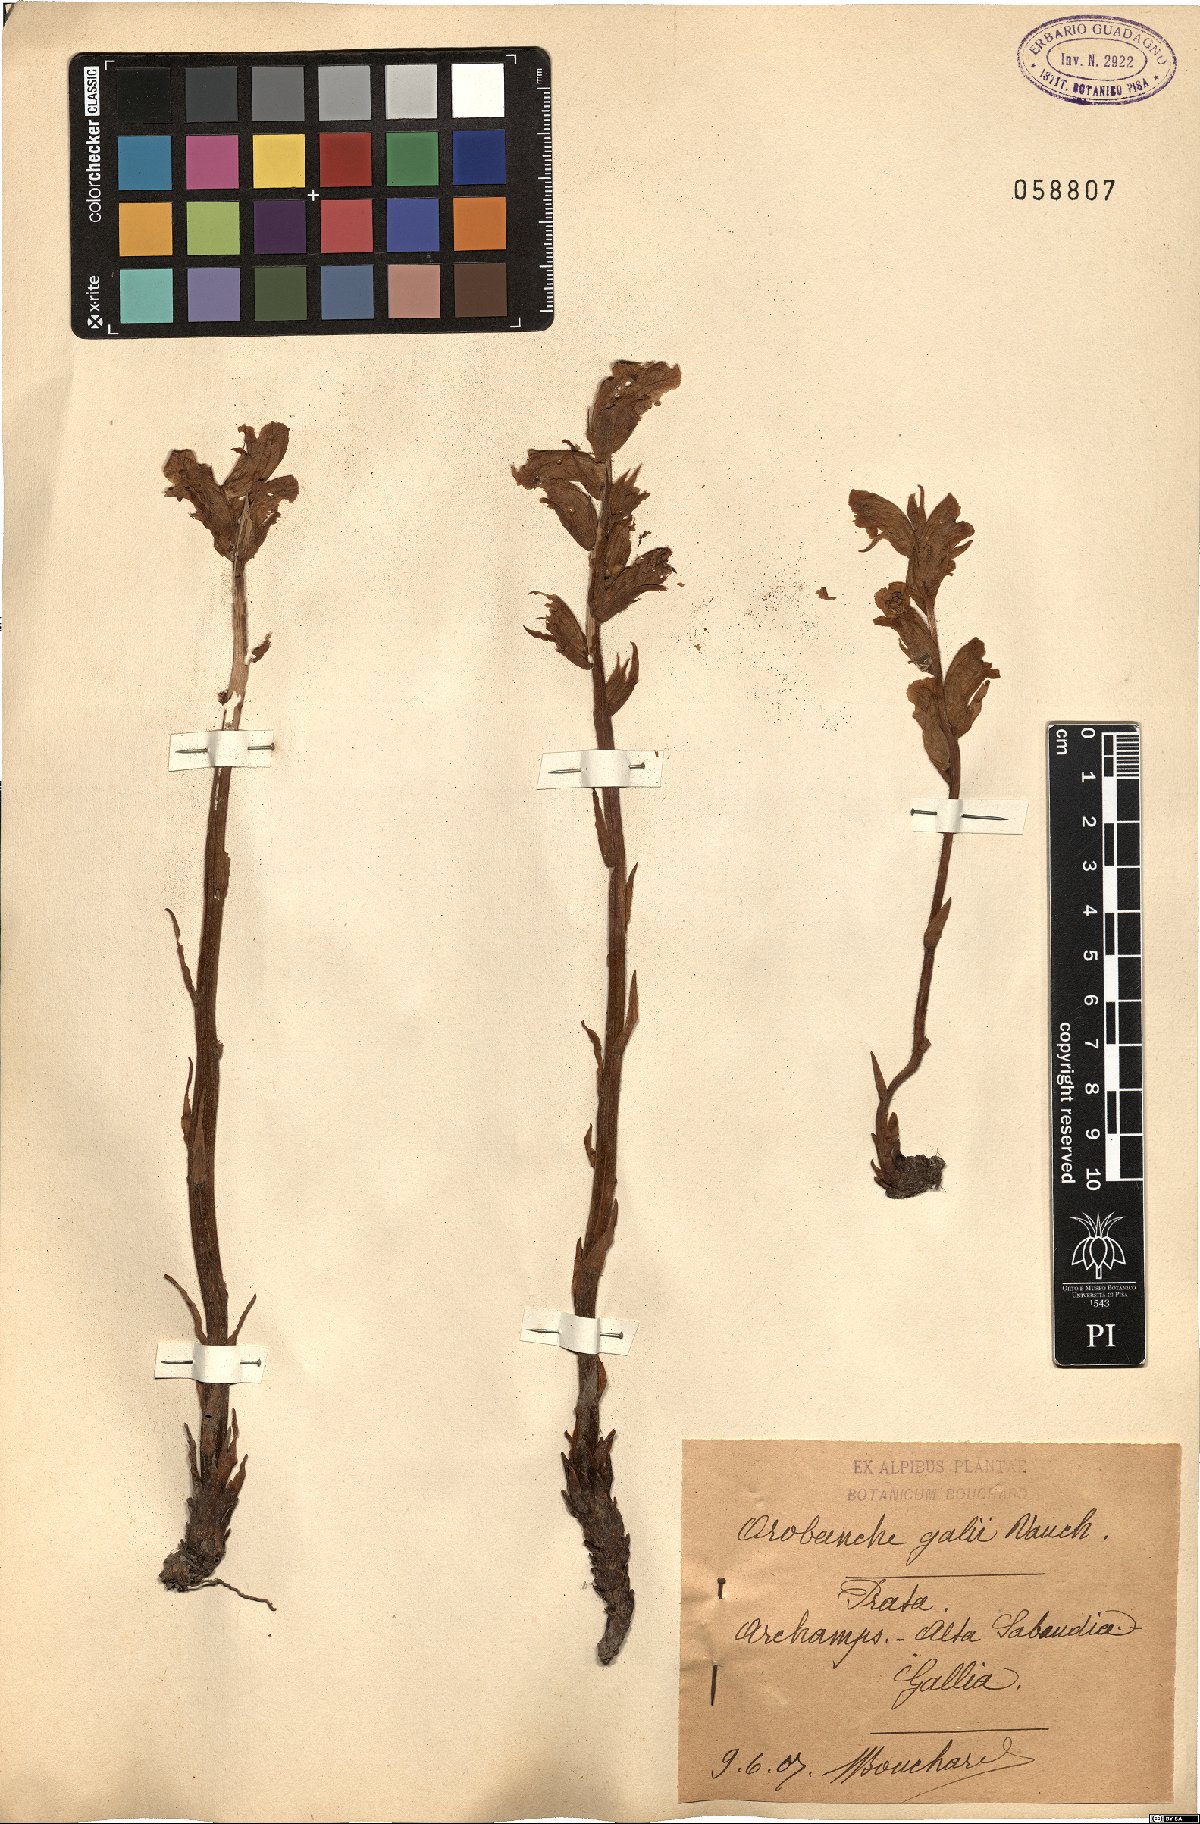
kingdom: Plantae
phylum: Tracheophyta
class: Magnoliopsida
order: Lamiales
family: Orobanchaceae
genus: Orobanche
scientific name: Orobanche caryophyllacea
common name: Bedstraw broomrape
